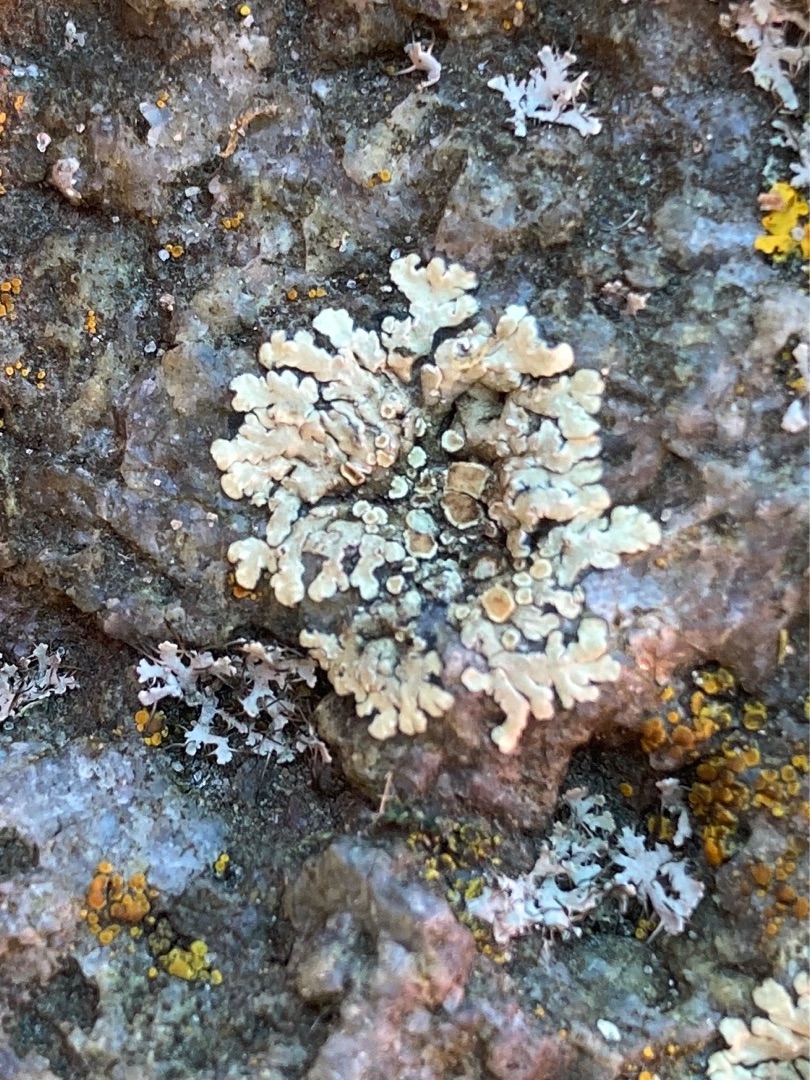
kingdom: Fungi
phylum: Ascomycota
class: Lecanoromycetes
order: Lecanorales
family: Lecanoraceae
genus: Protoparmeliopsis
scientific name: Protoparmeliopsis muralis
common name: Randfliget kantskivelav
